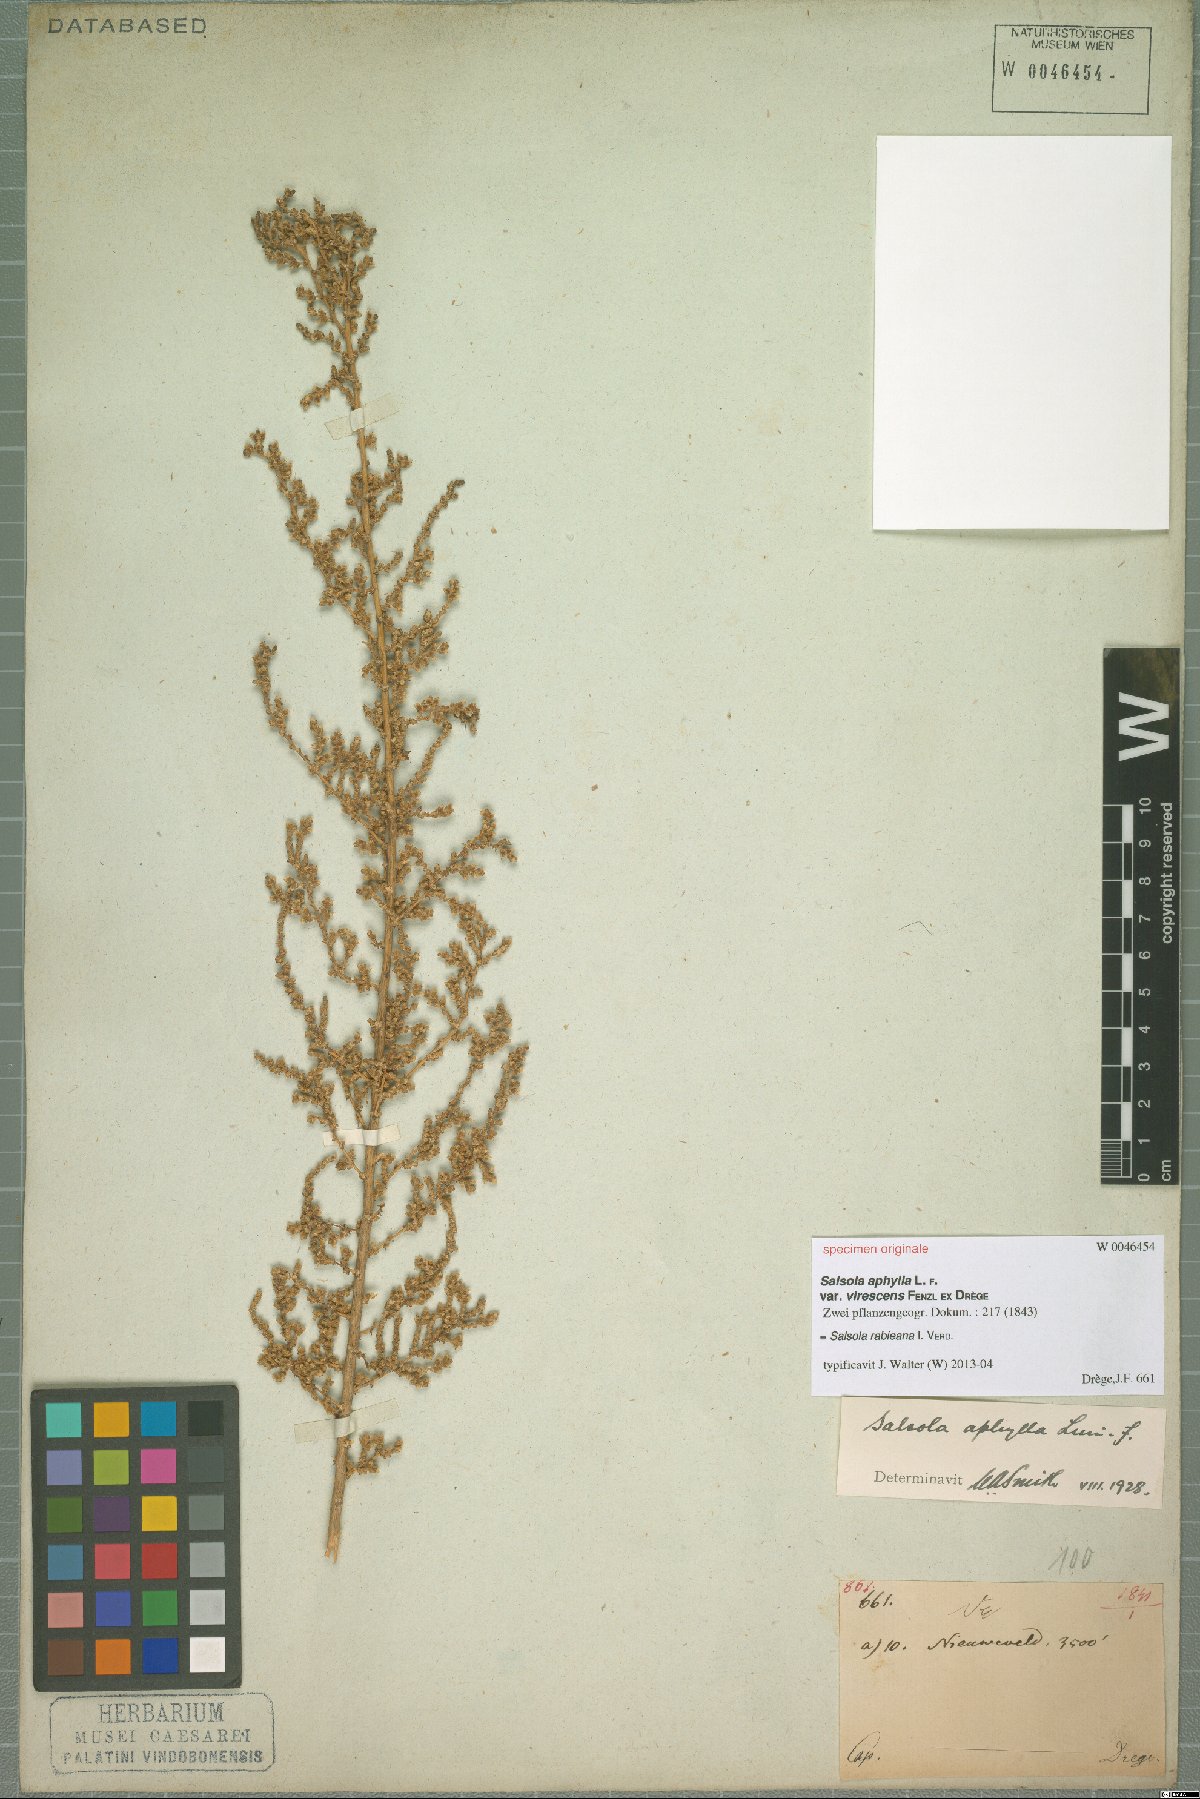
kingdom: Plantae
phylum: Tracheophyta
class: Magnoliopsida
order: Caryophyllales
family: Amaranthaceae
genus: Caroxylon
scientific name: Caroxylon rabieanum
